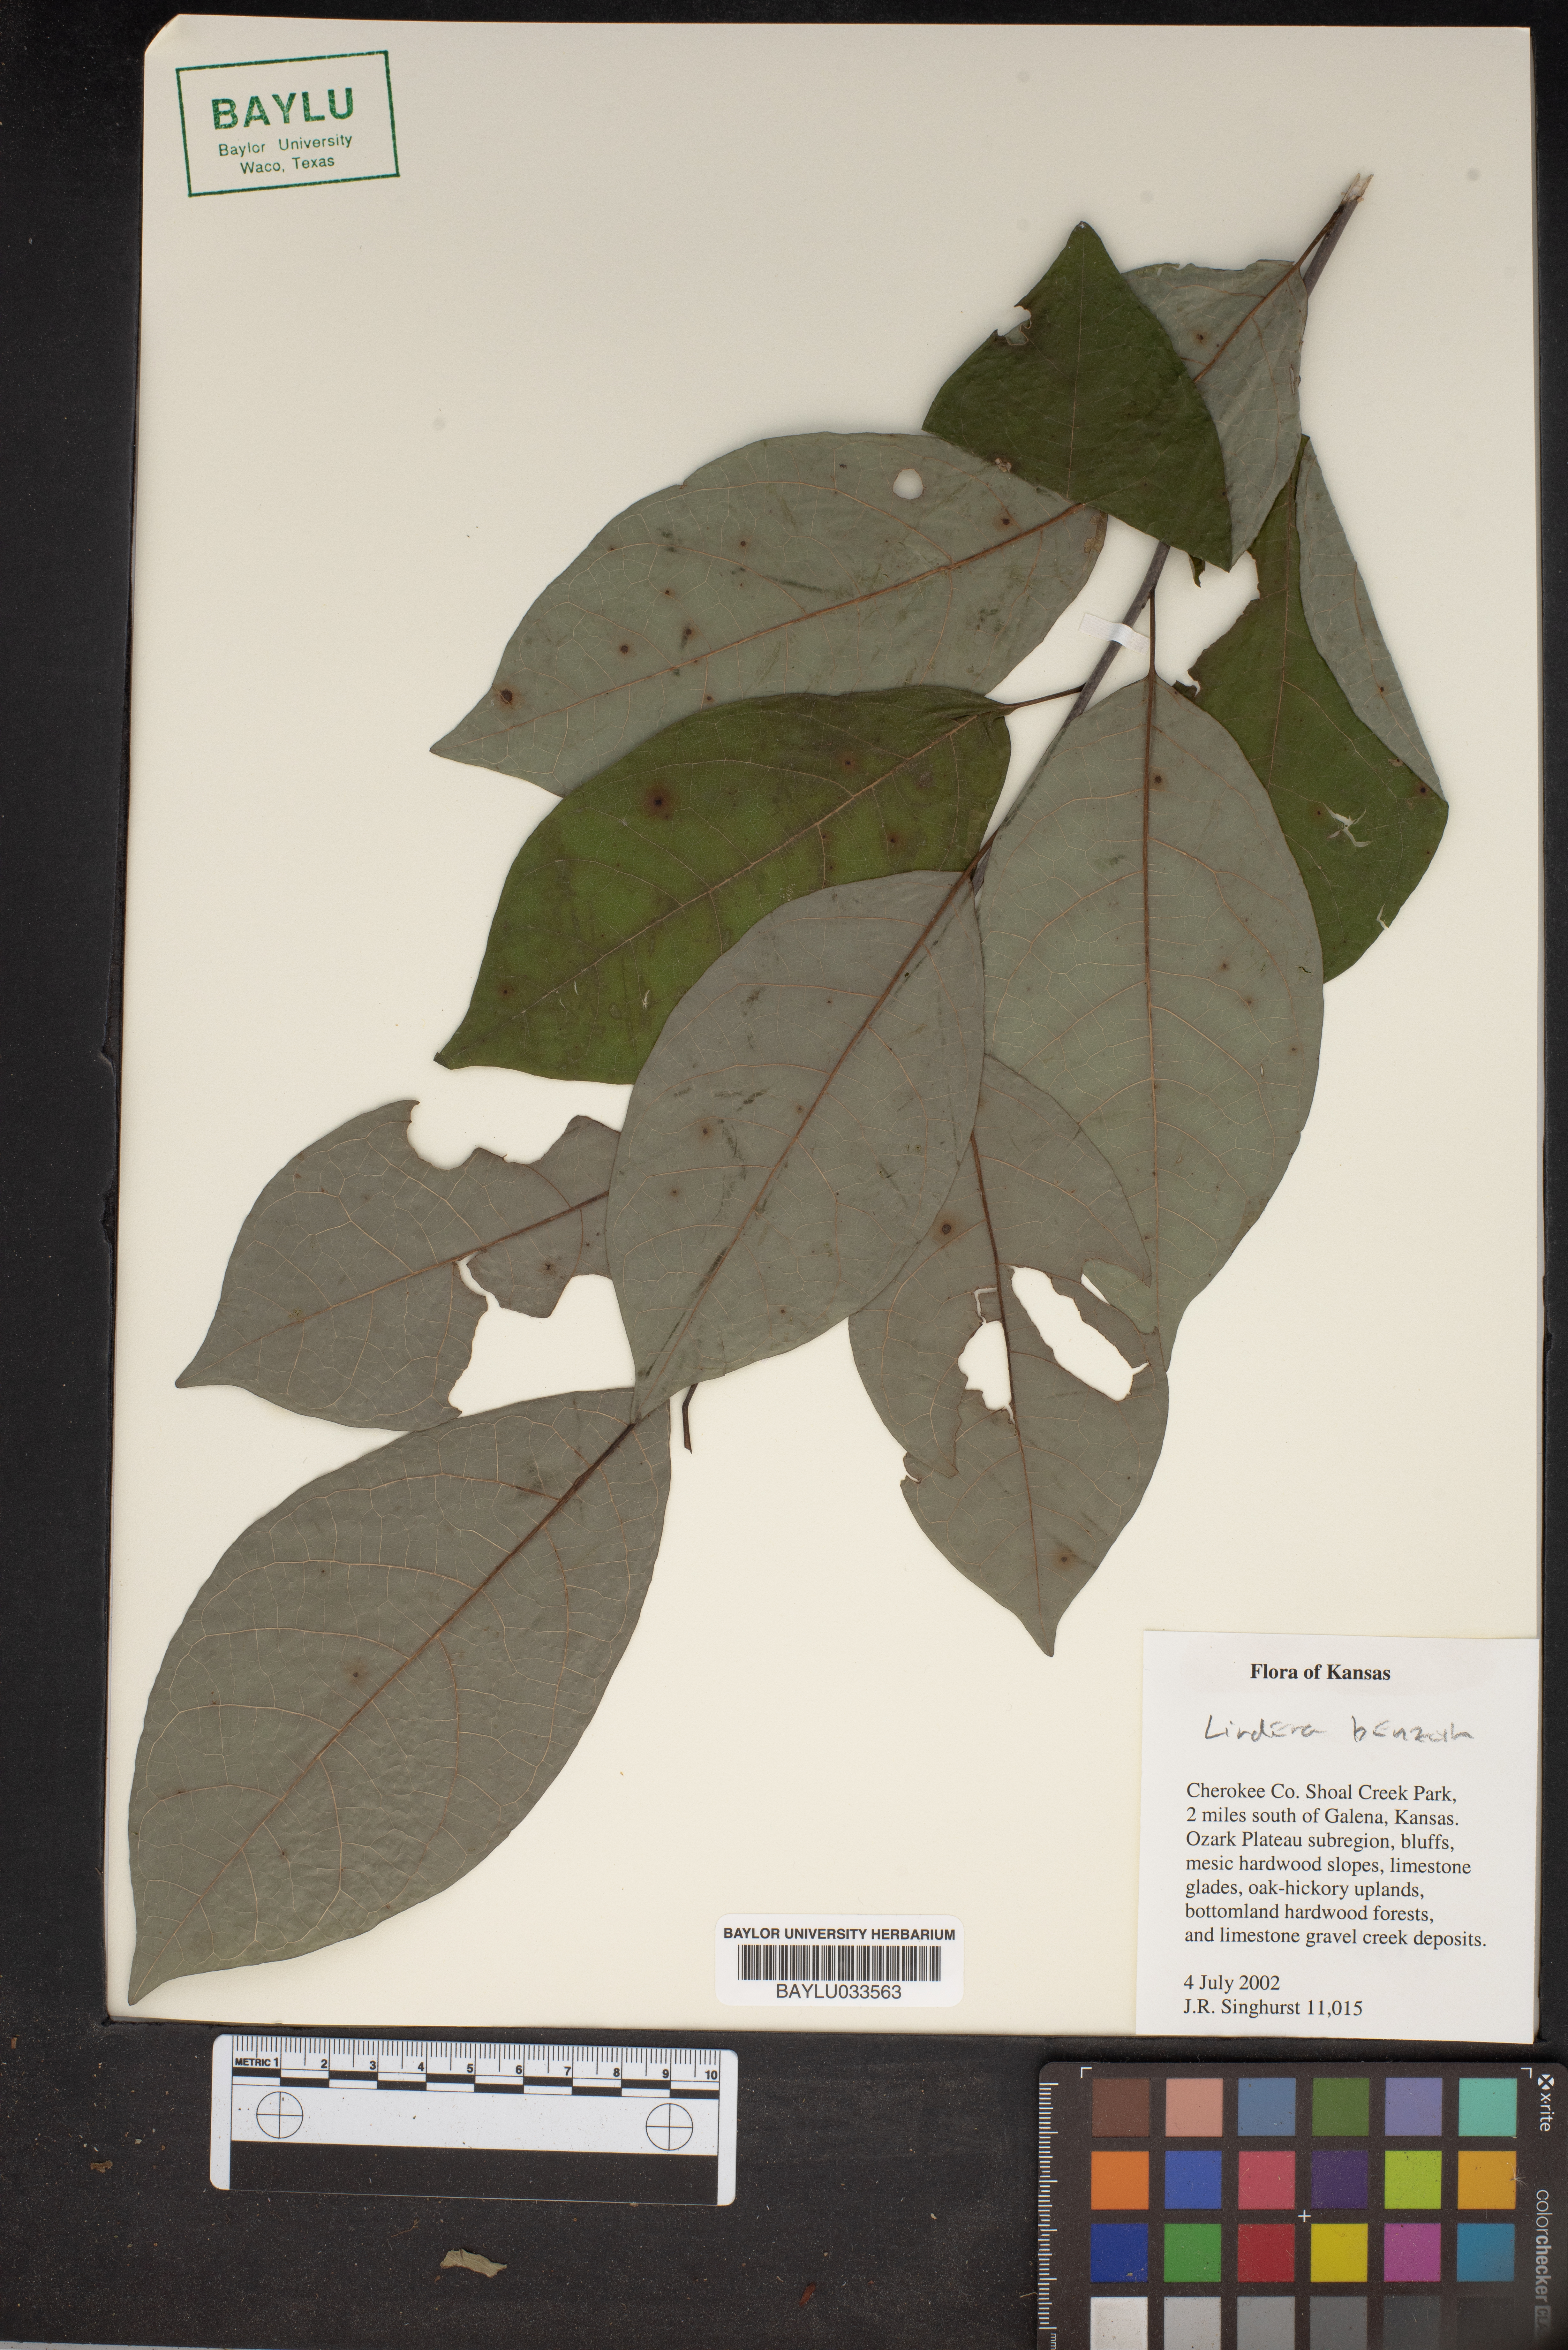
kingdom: Plantae
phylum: Tracheophyta
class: Magnoliopsida
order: Laurales
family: Lauraceae
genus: Lindera
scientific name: Lindera benzoin
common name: Spicebush
